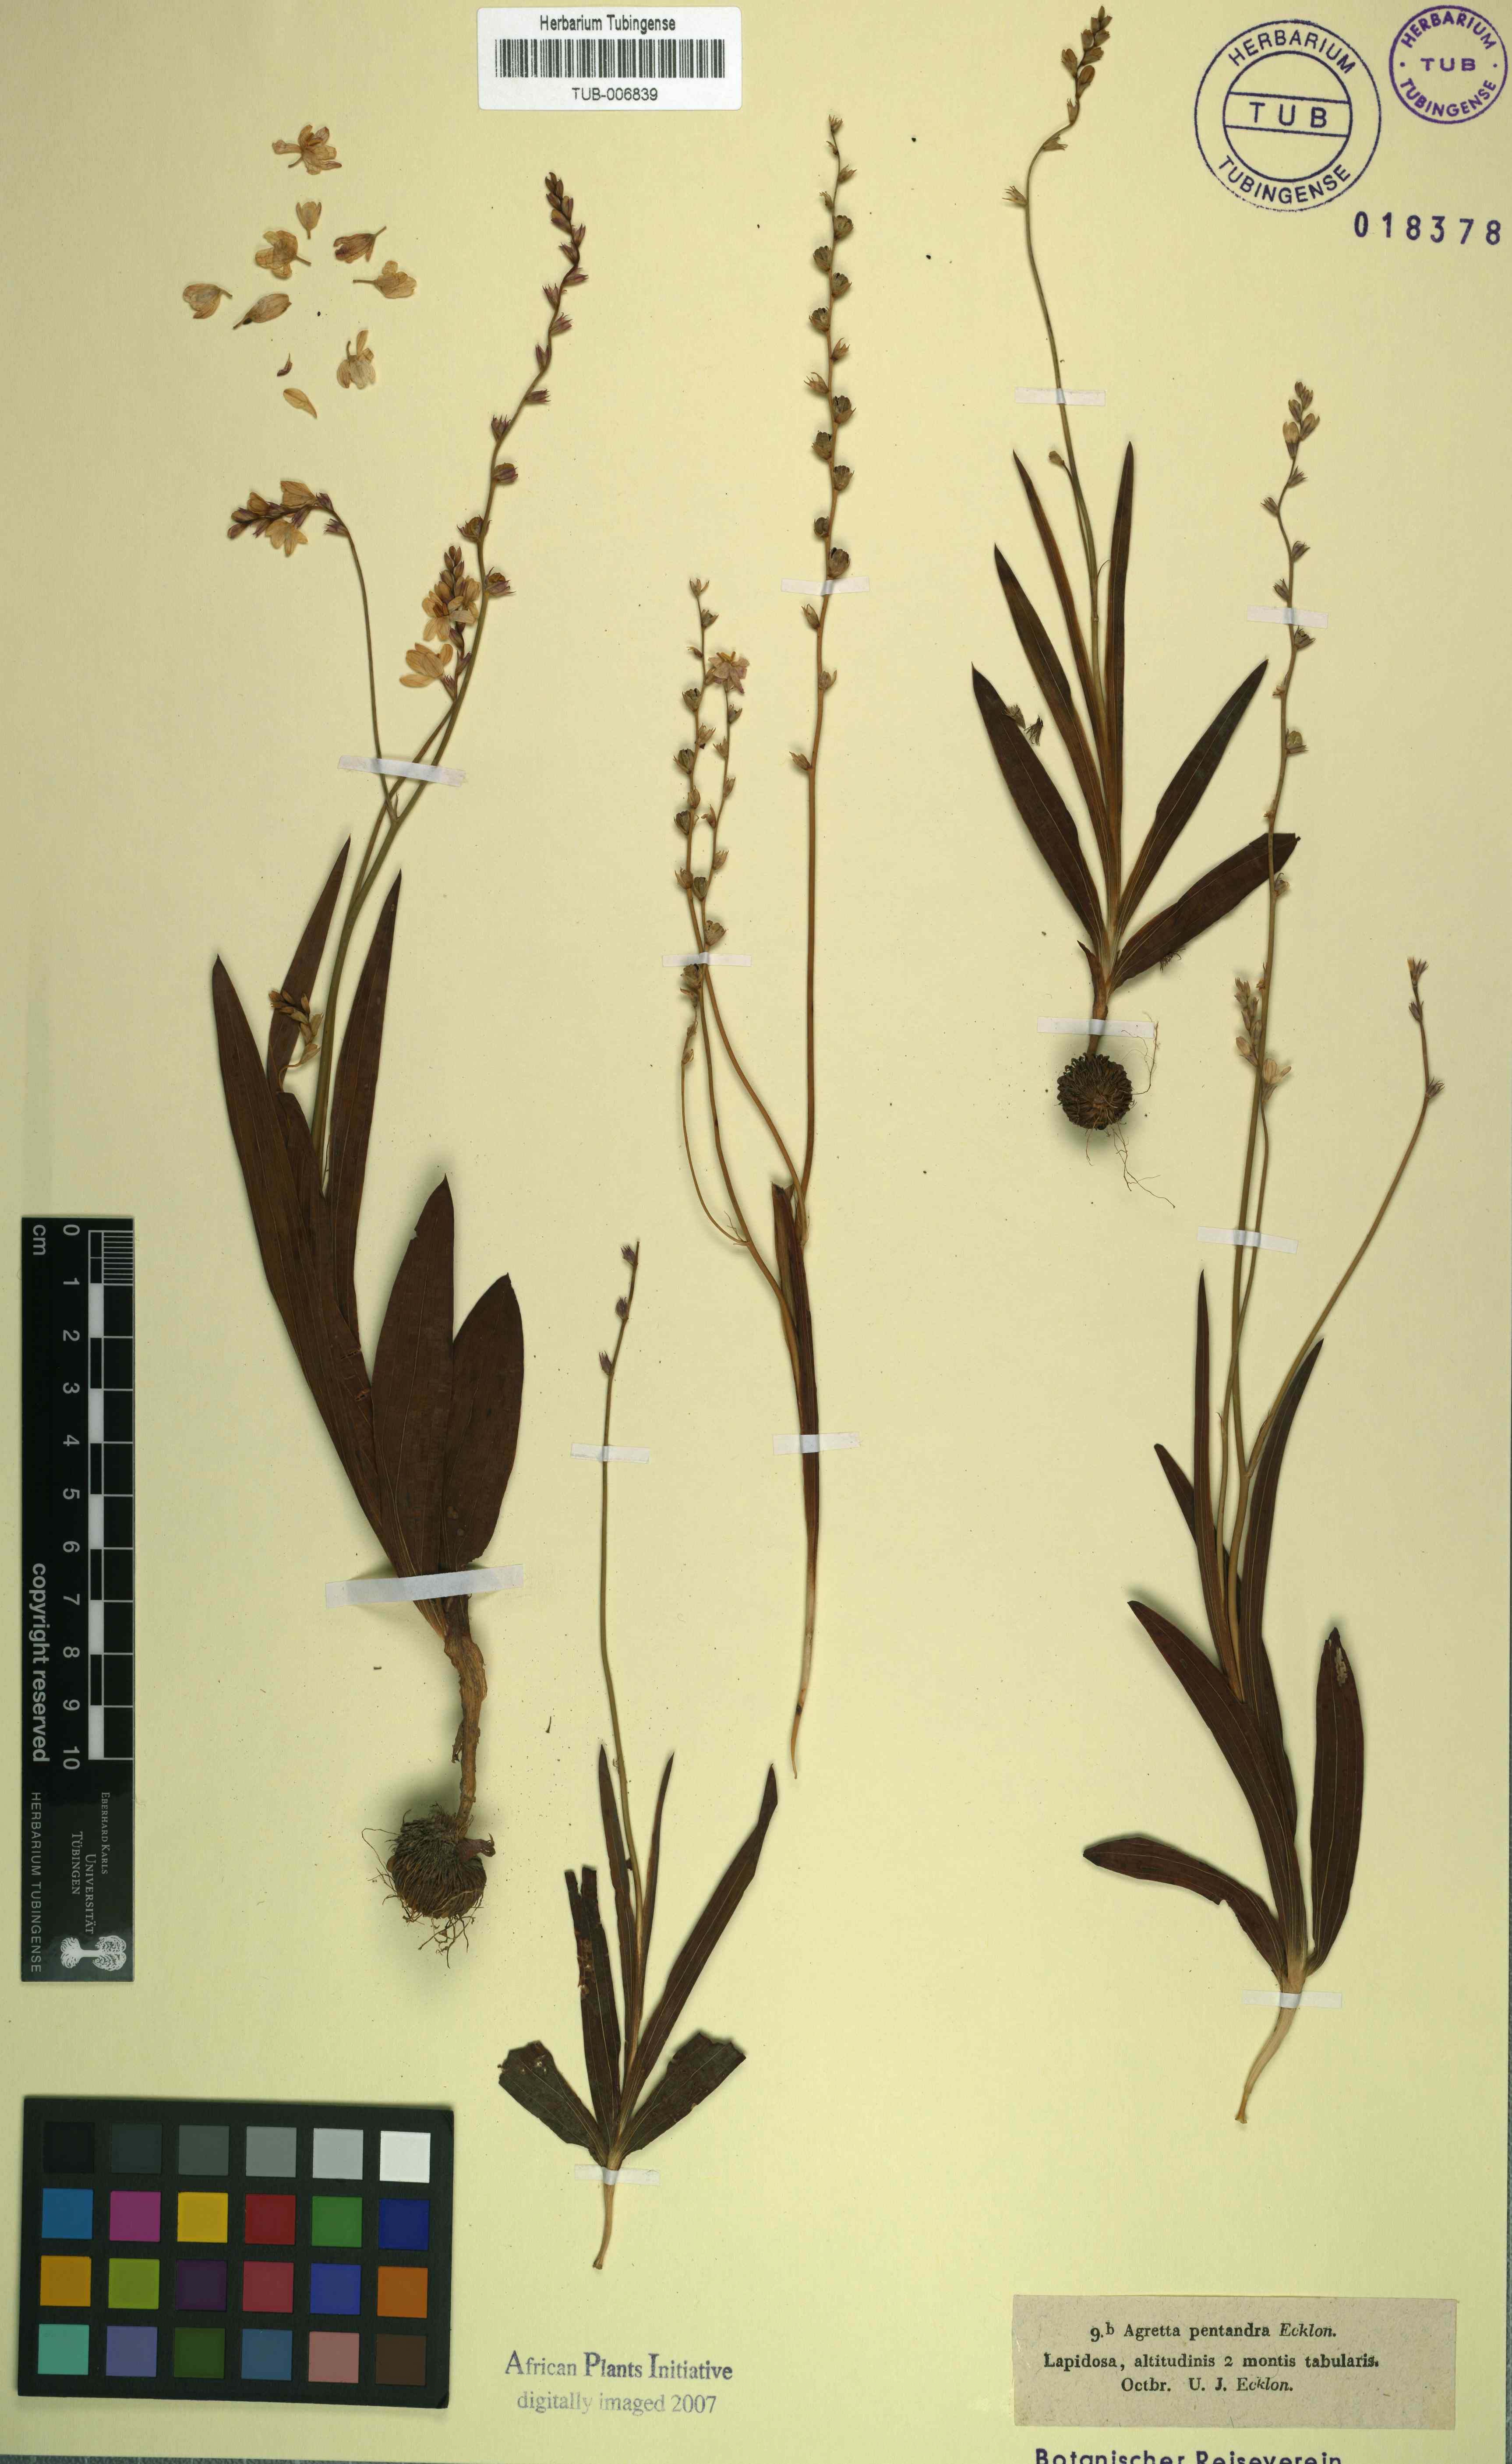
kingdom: Plantae
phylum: Tracheophyta
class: Liliopsida
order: Asparagales
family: Iridaceae
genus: Ixia
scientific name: Ixia scillaris
